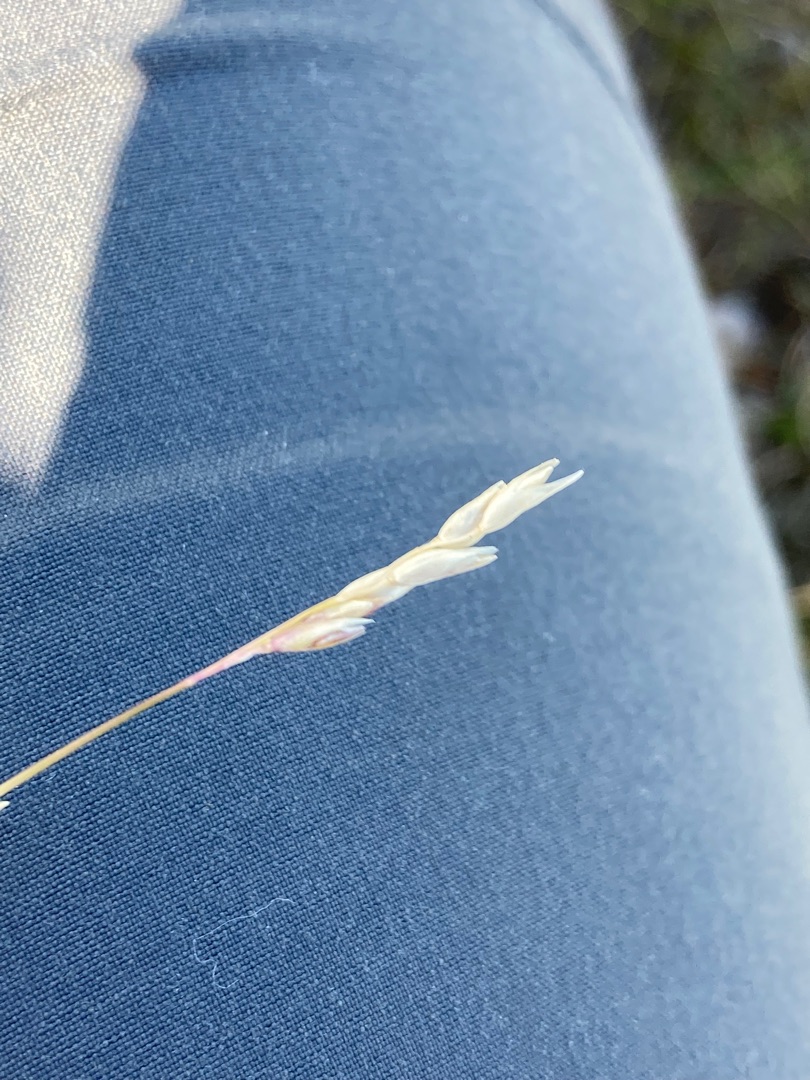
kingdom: Plantae
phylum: Tracheophyta
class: Liliopsida
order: Poales
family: Poaceae
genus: Danthonia
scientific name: Danthonia decumbens
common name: Tandbælg
